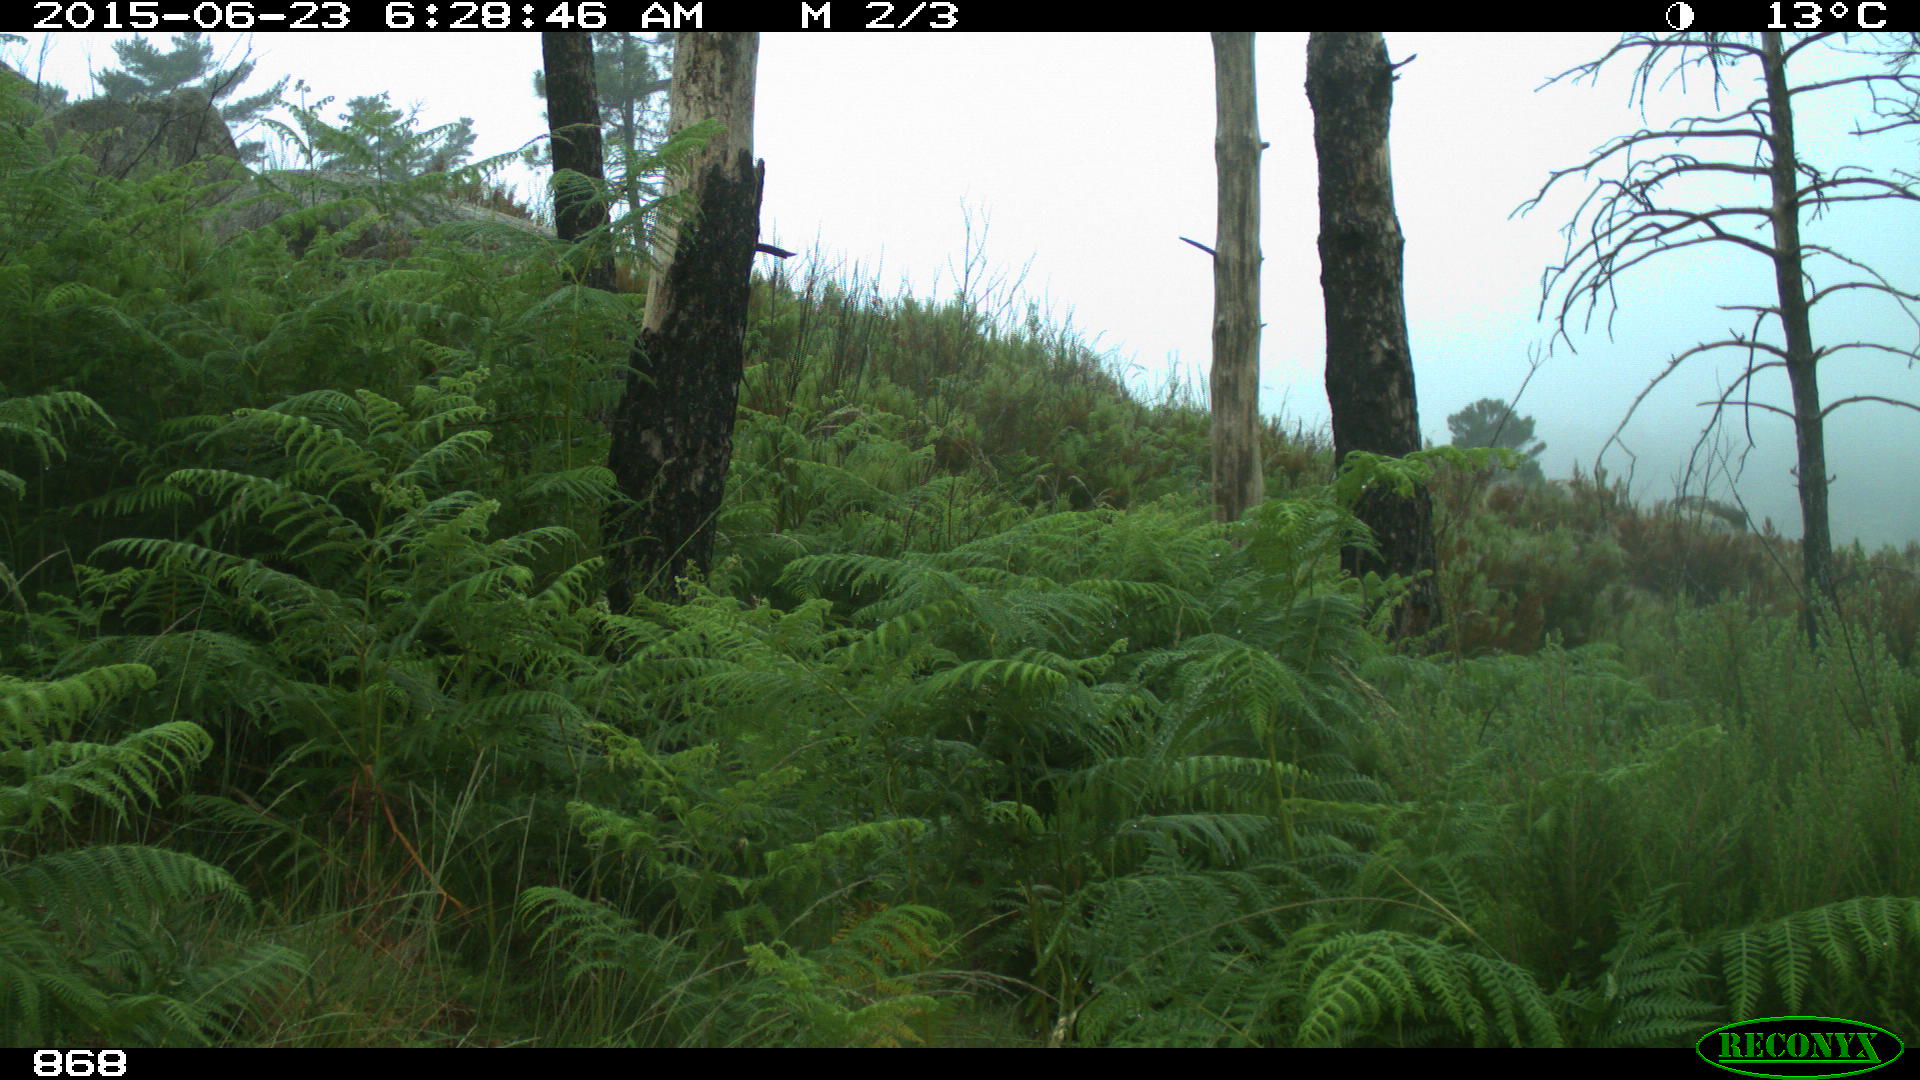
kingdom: Animalia
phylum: Chordata
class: Mammalia
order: Artiodactyla
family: Bovidae
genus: Bos
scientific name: Bos taurus
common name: Domesticated cattle
